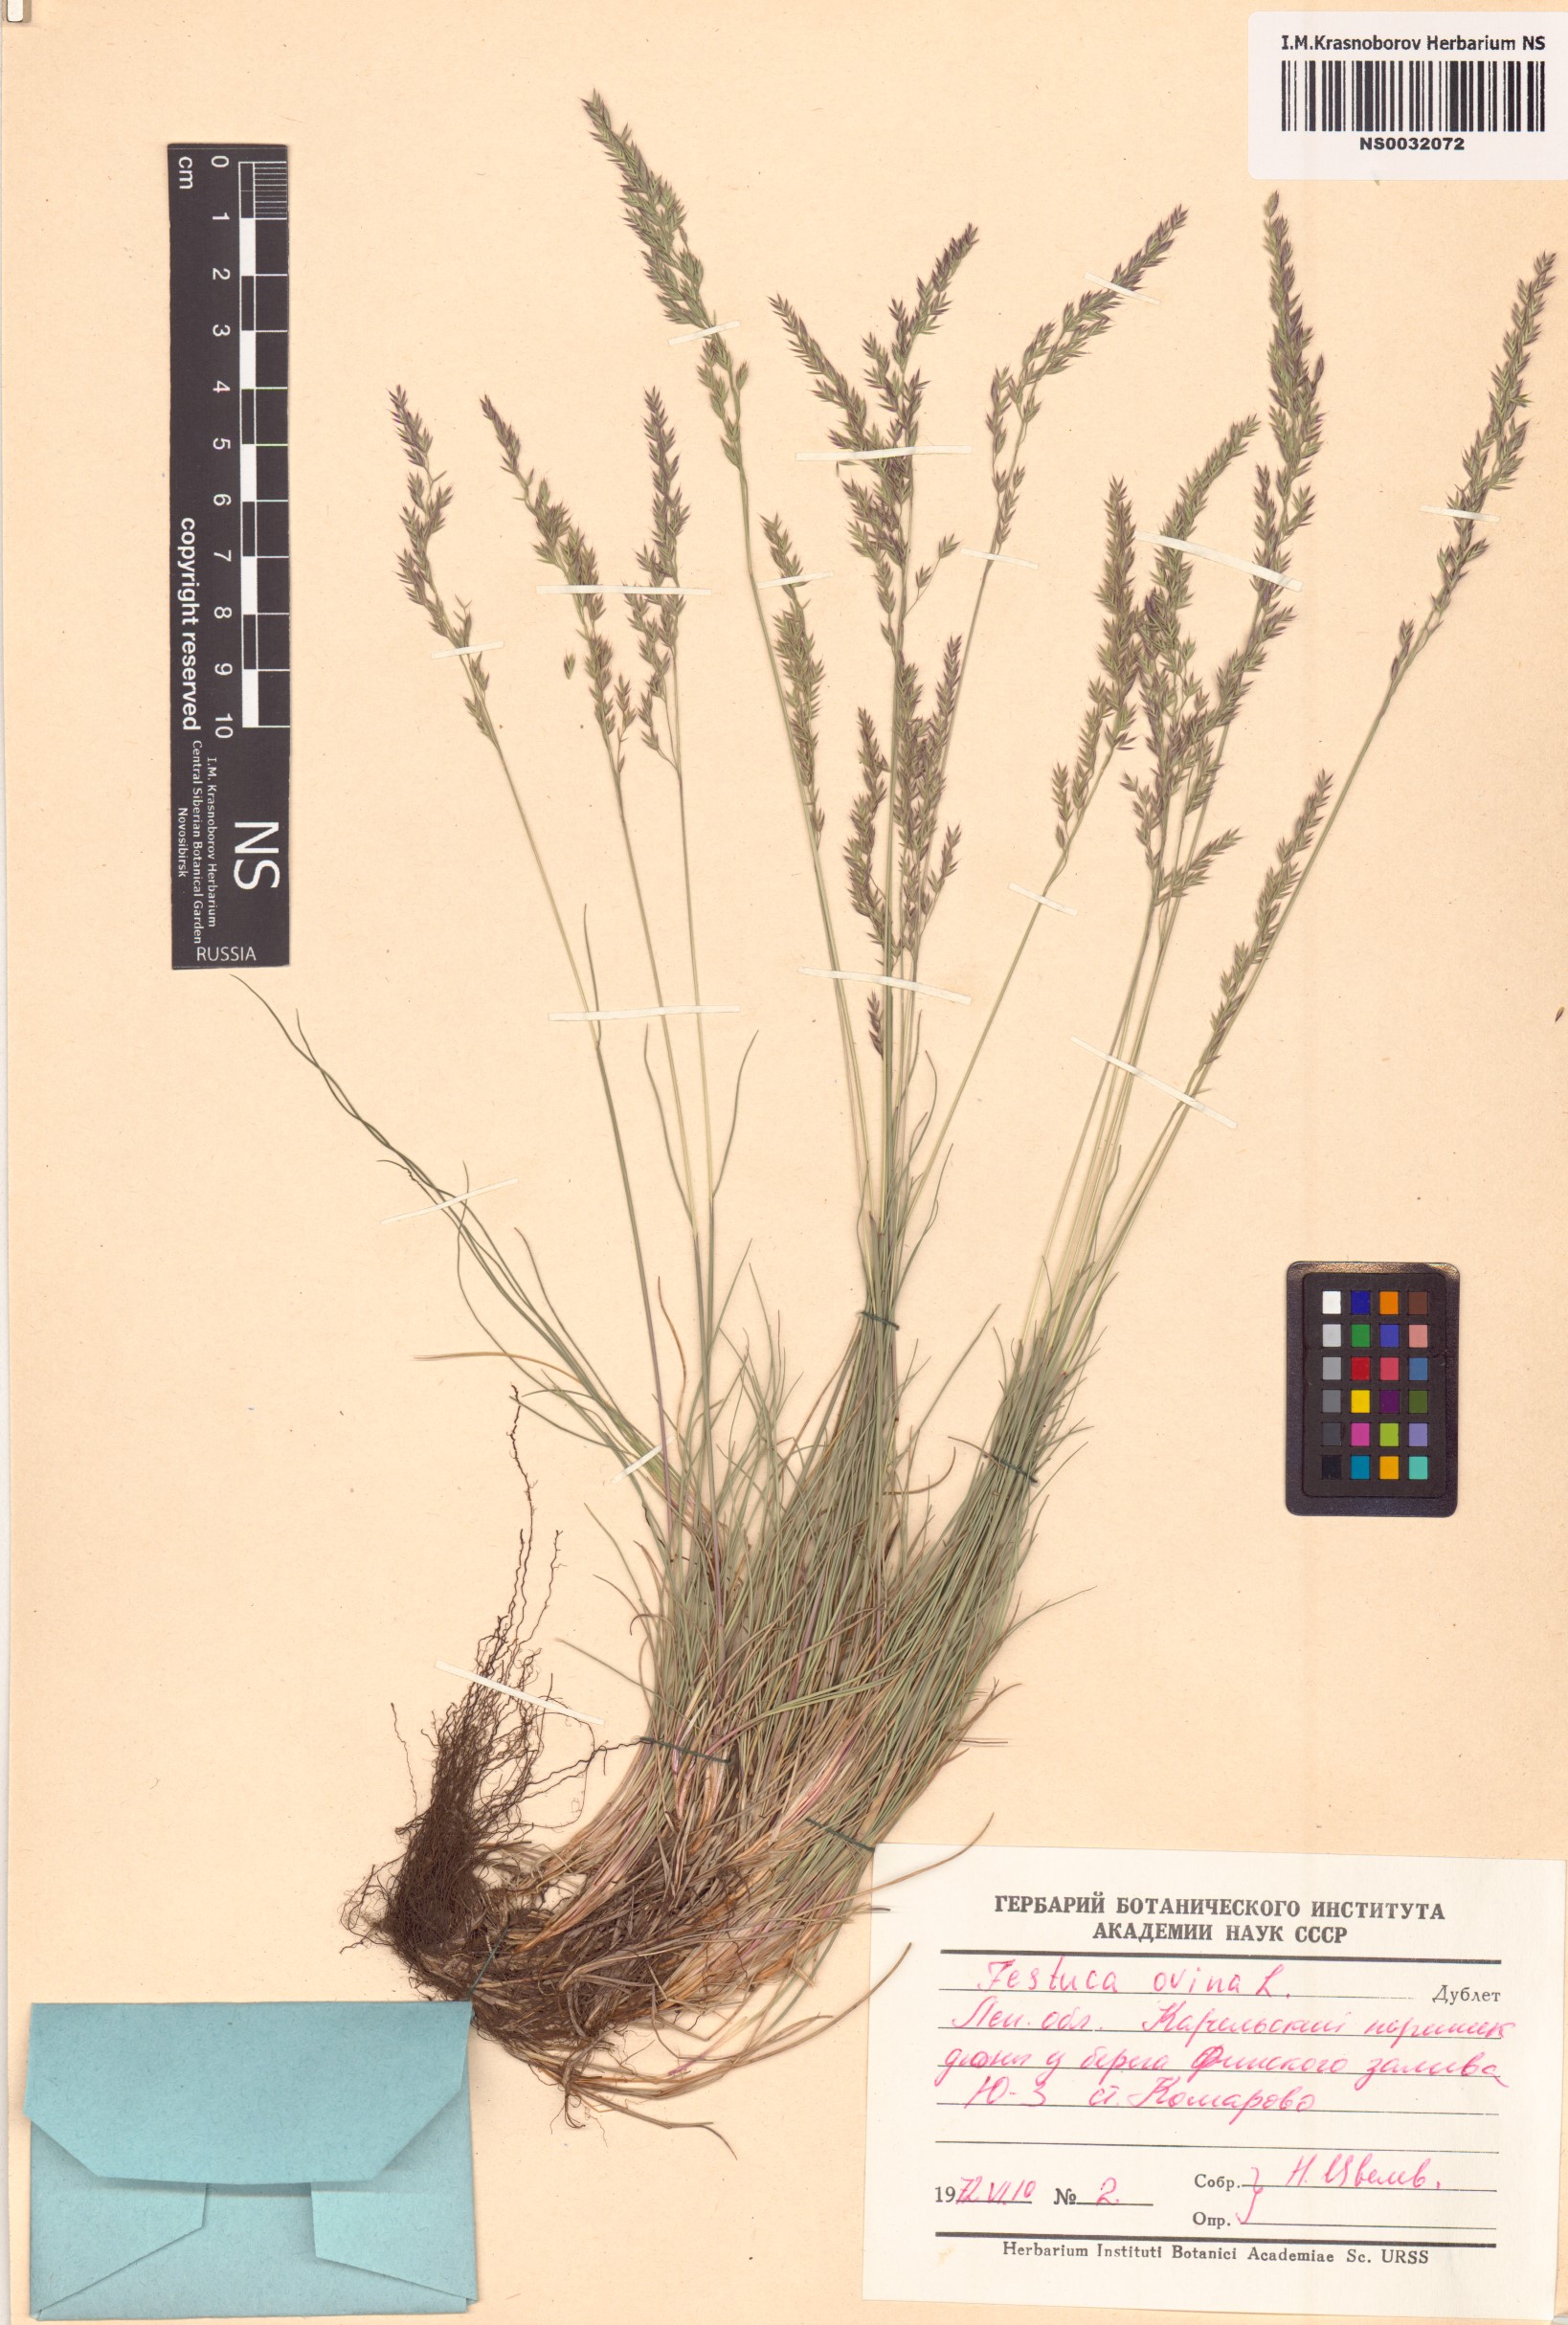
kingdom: Plantae
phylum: Tracheophyta
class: Liliopsida
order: Poales
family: Poaceae
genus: Festuca
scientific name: Festuca ovina
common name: Sheep fescue
